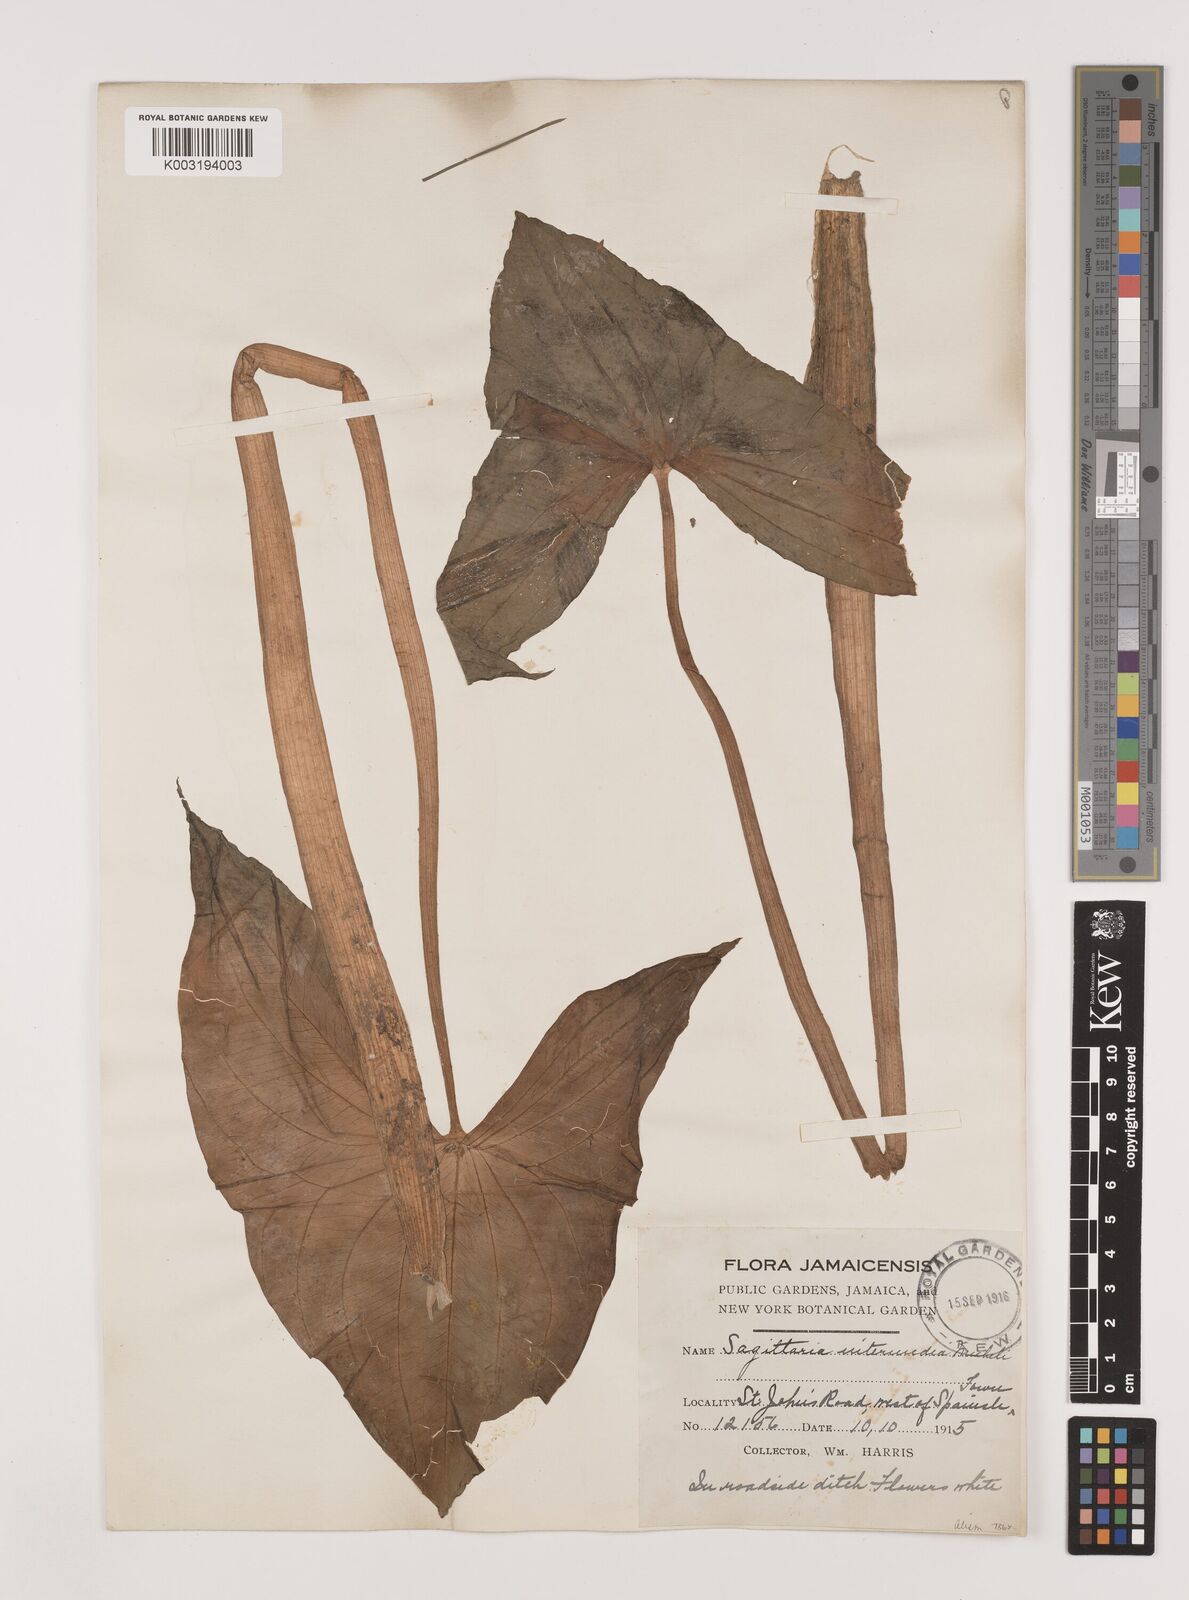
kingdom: Plantae
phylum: Tracheophyta
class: Liliopsida
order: Alismatales
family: Alismataceae
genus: Sagittaria
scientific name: Sagittaria intermedia
